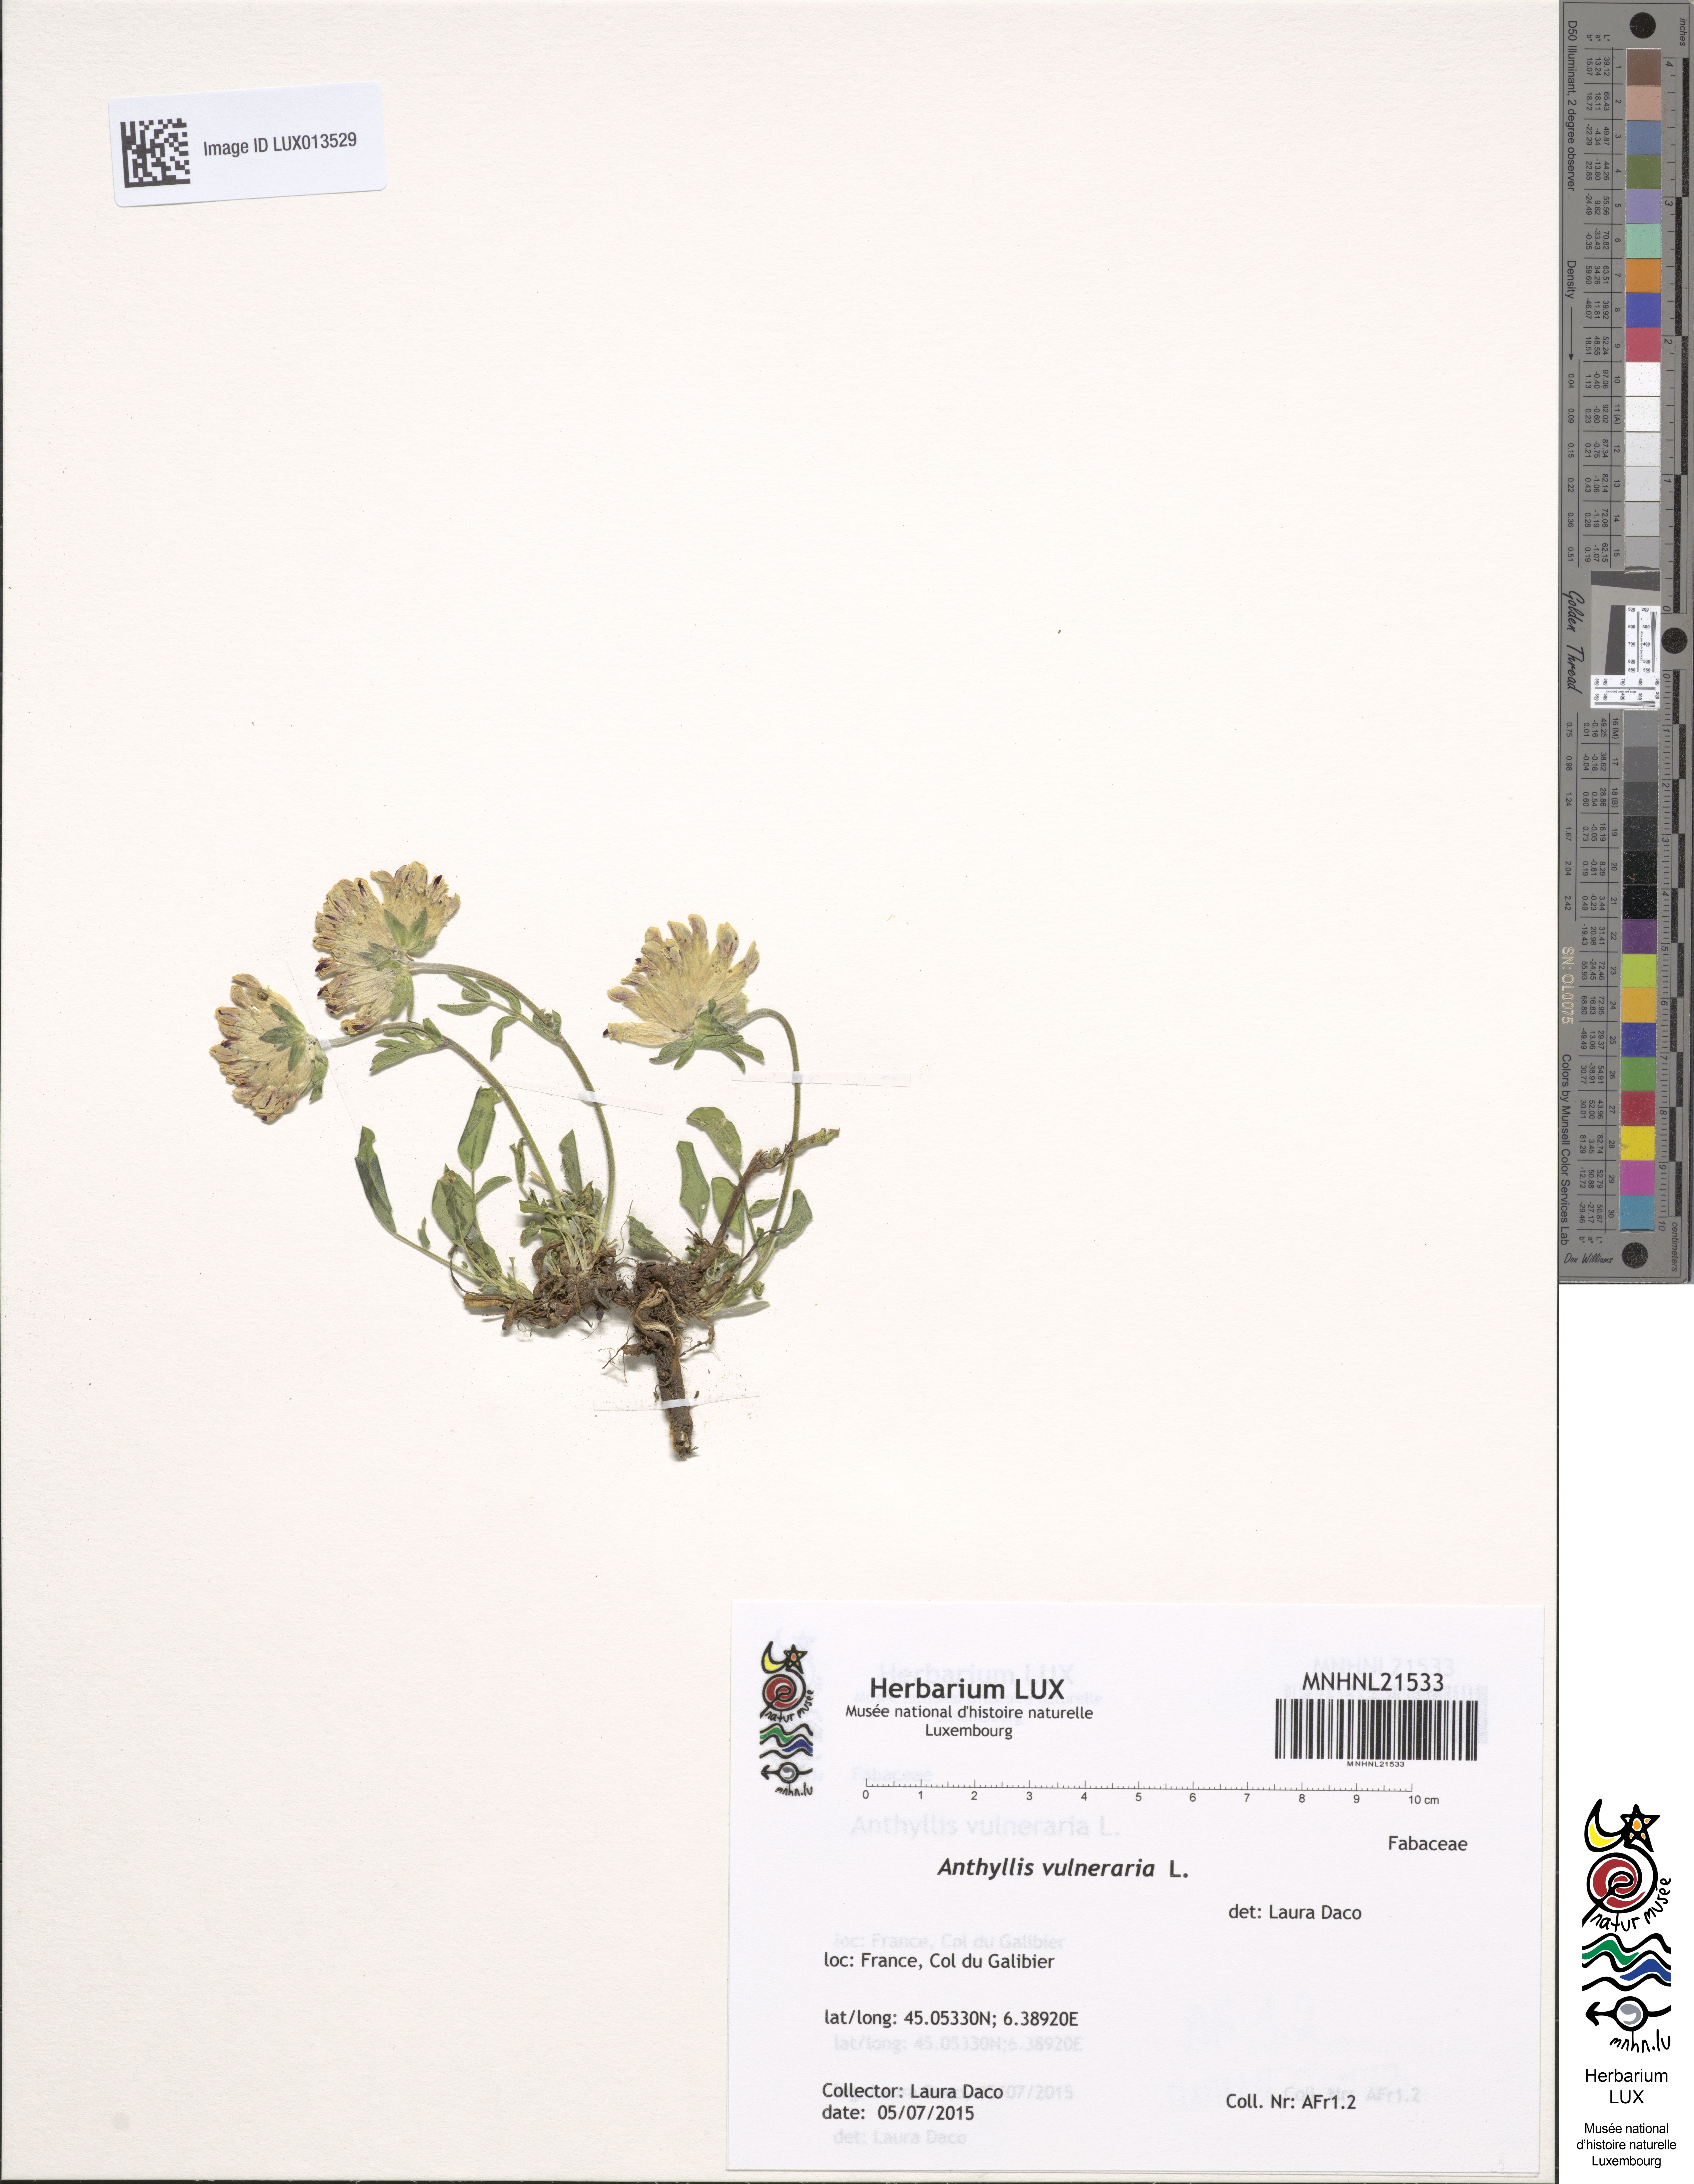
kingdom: Plantae
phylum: Tracheophyta
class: Magnoliopsida
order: Fabales
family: Fabaceae
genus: Anthyllis
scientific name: Anthyllis vulneraria
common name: Kidney vetch
